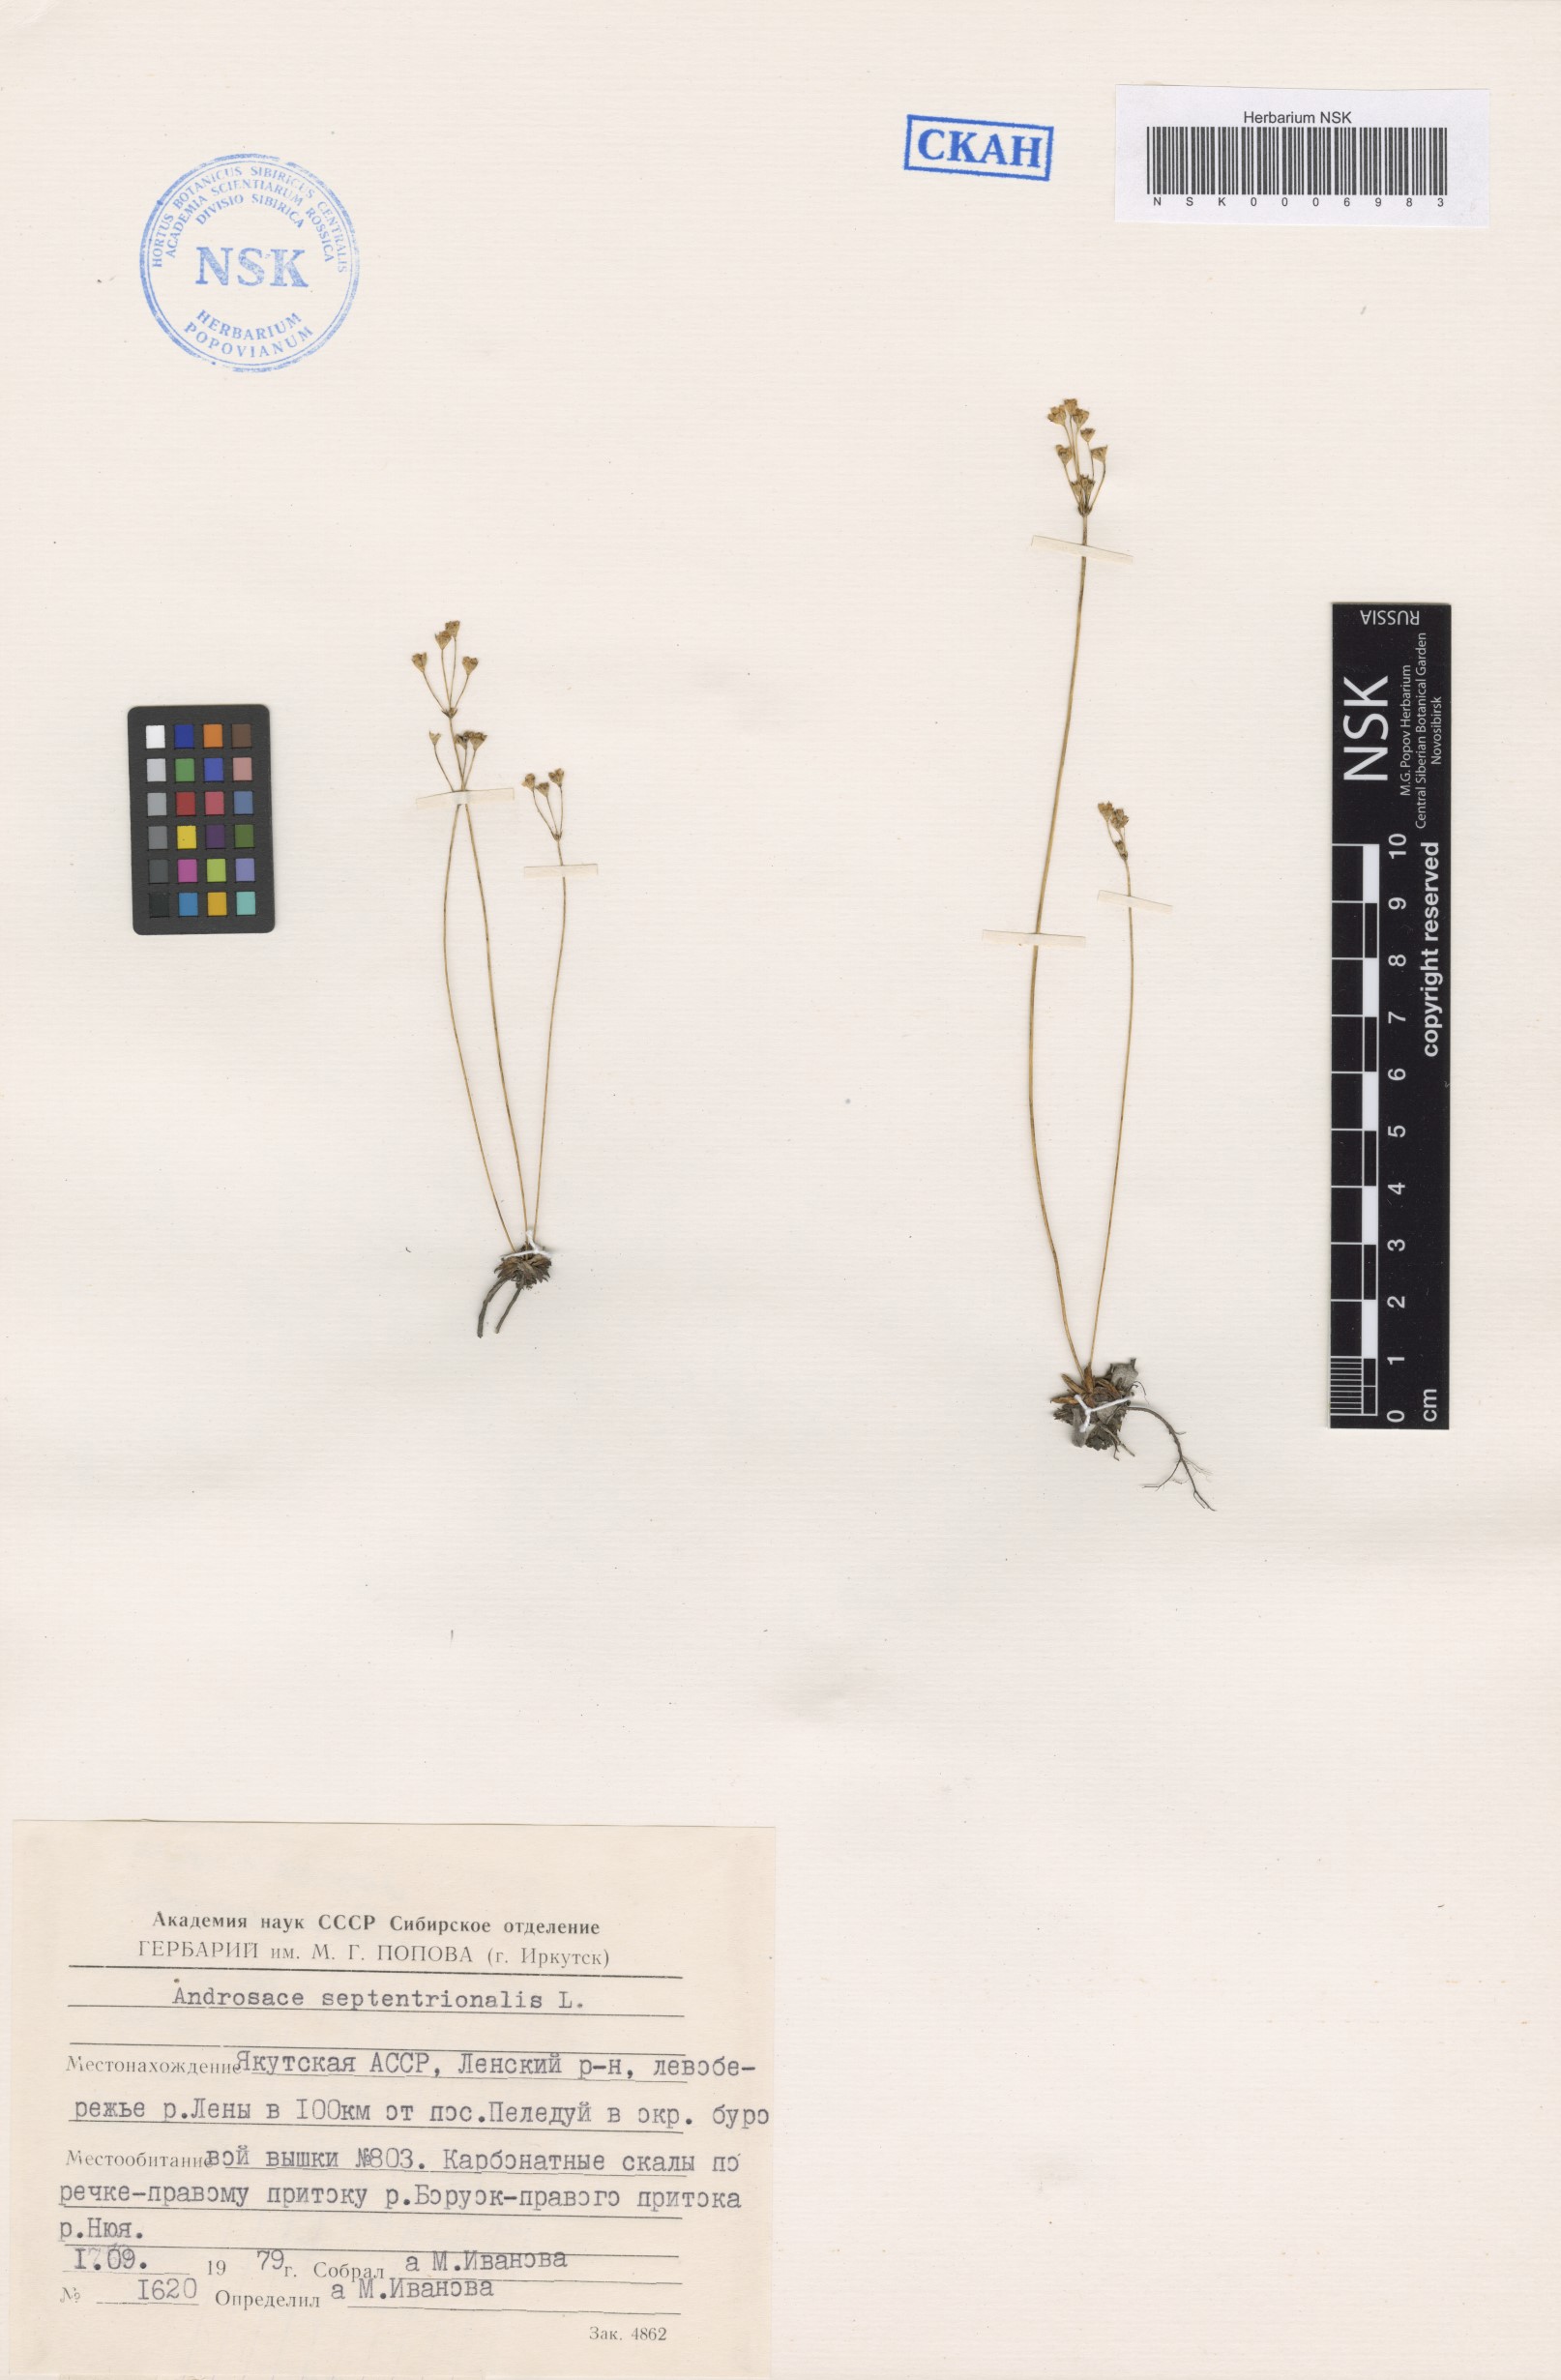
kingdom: Plantae
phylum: Tracheophyta
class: Magnoliopsida
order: Ericales
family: Primulaceae
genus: Androsace
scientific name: Androsace septentrionalis
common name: Hairy northern fairy-candelabra
